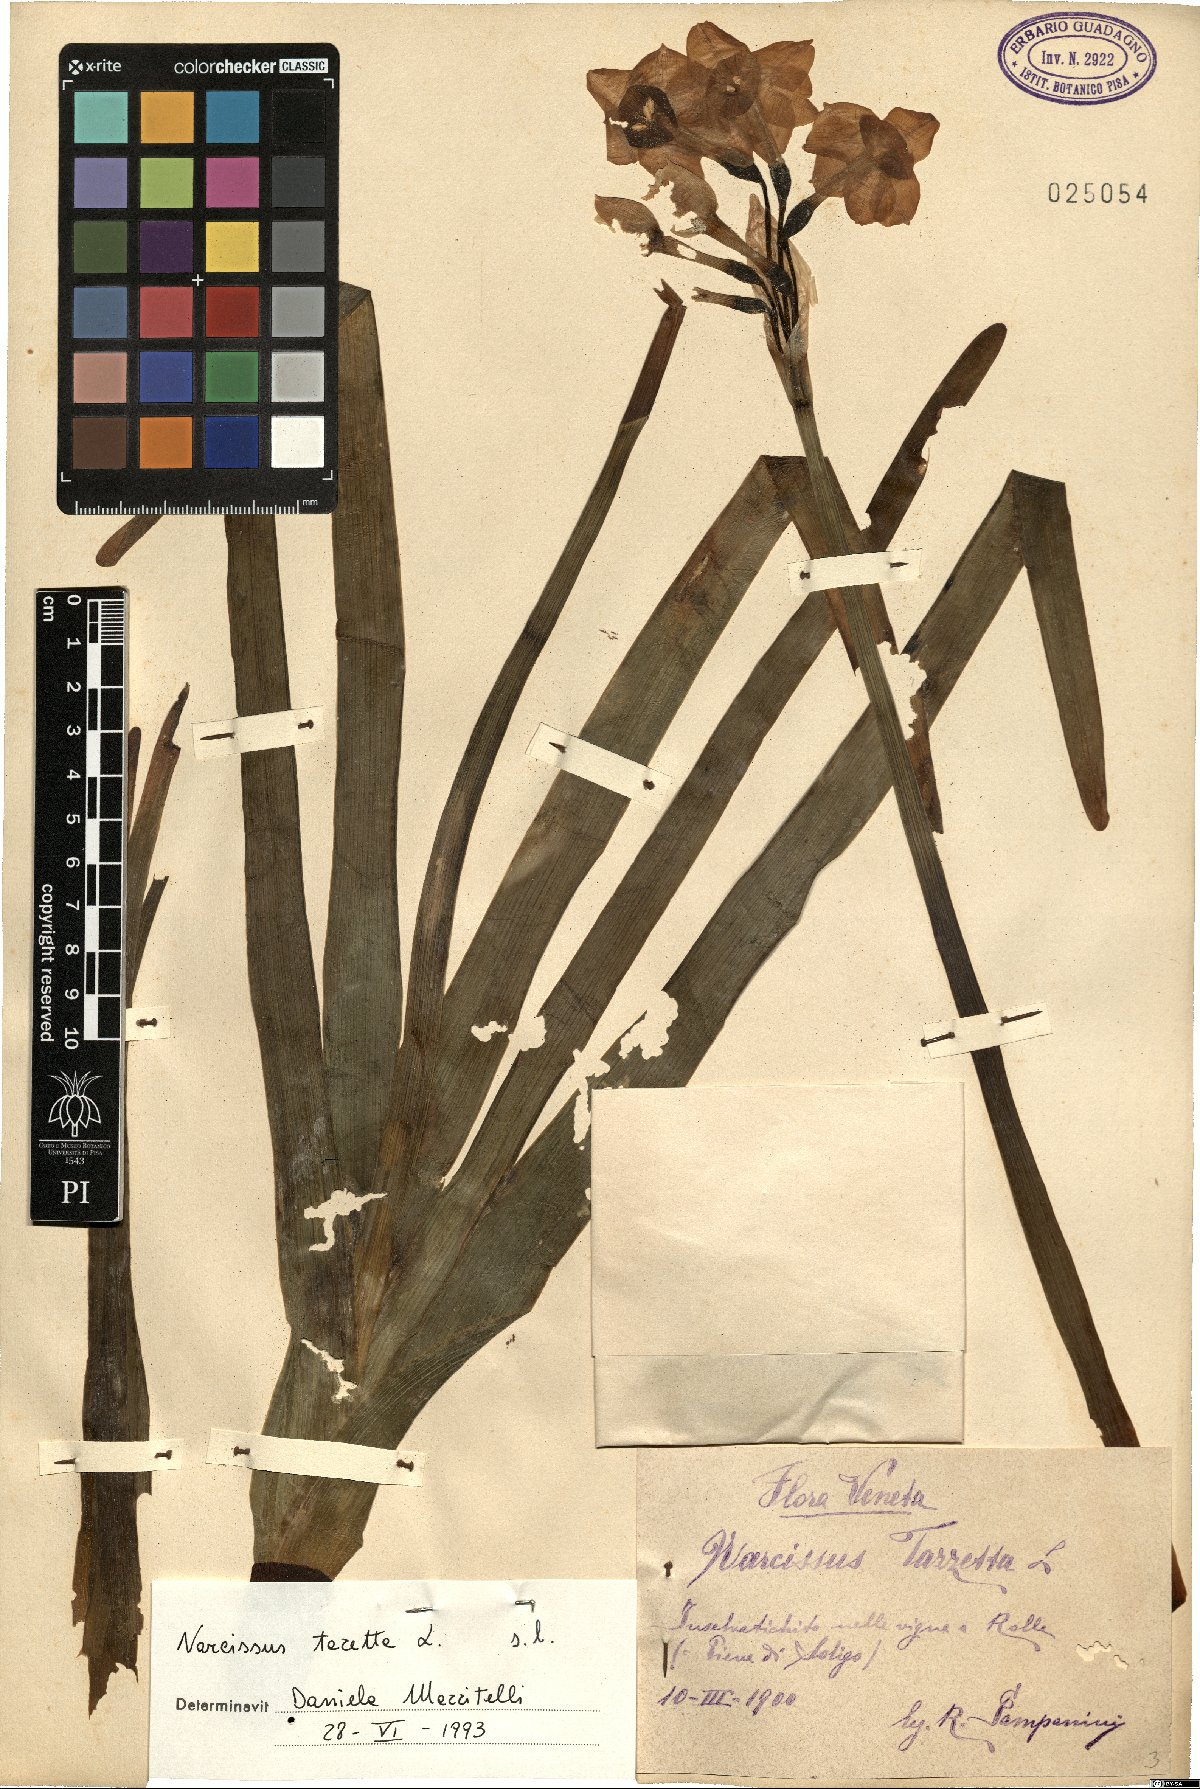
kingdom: Plantae
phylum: Tracheophyta
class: Liliopsida
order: Asparagales
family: Amaryllidaceae
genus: Narcissus
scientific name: Narcissus tazetta
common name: Bunch-flowered daffodil
